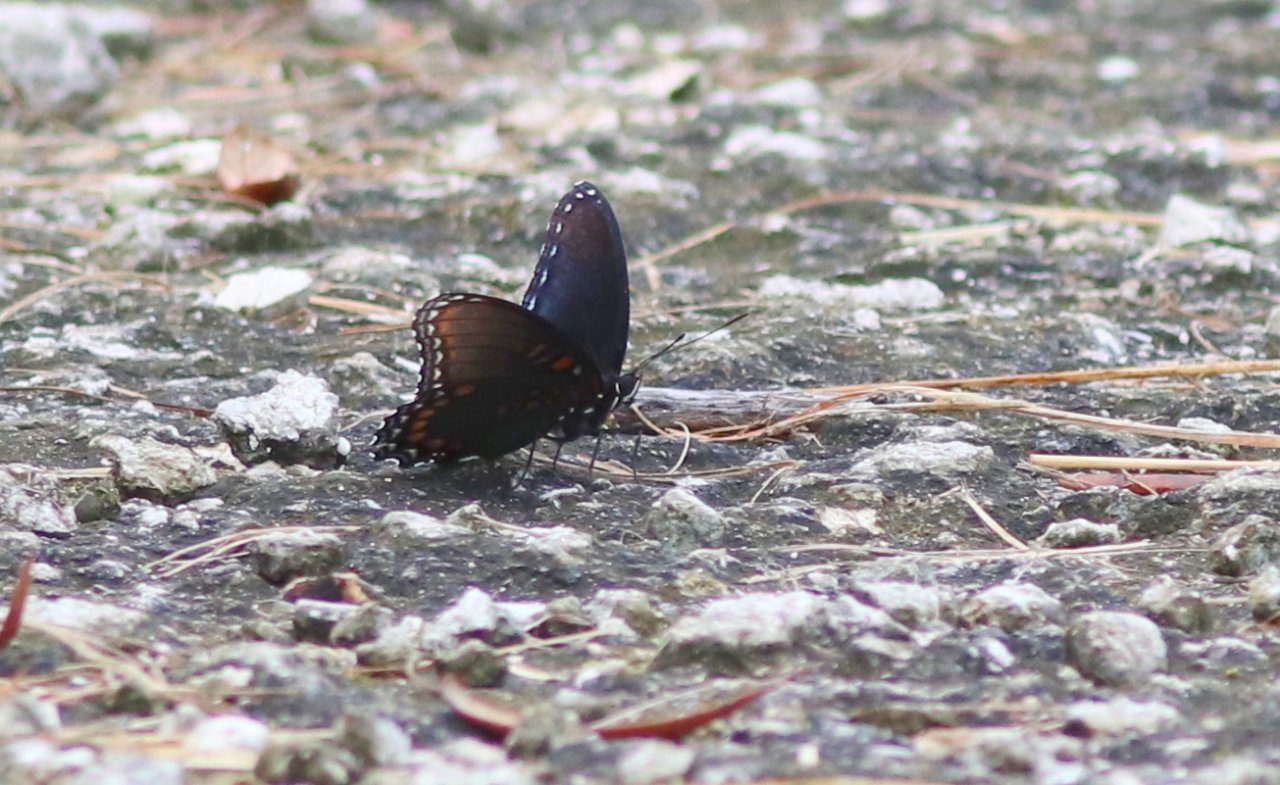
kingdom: Animalia
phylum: Arthropoda
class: Insecta
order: Lepidoptera
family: Nymphalidae
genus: Limenitis
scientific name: Limenitis astyanax
